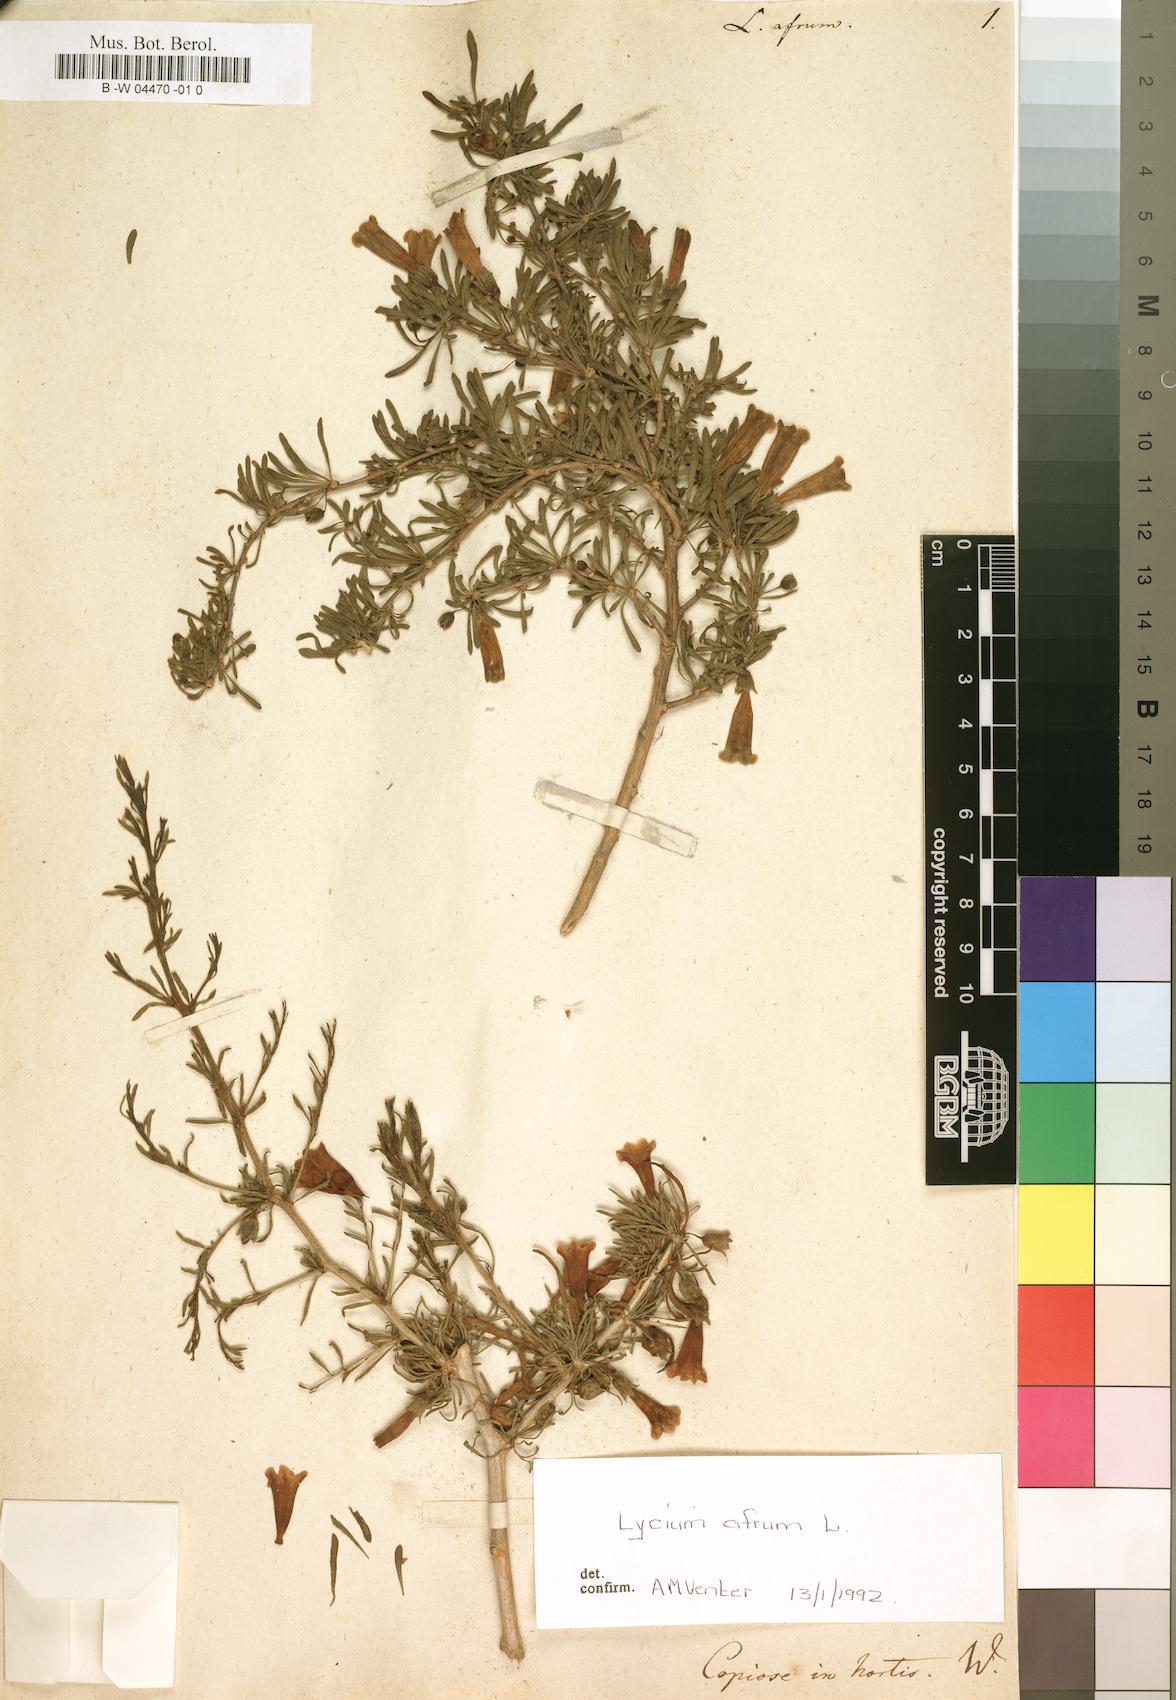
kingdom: Plantae
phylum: Tracheophyta
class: Magnoliopsida
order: Solanales
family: Solanaceae
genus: Lycium
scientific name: Lycium afrum
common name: Kaffir boxthorn
